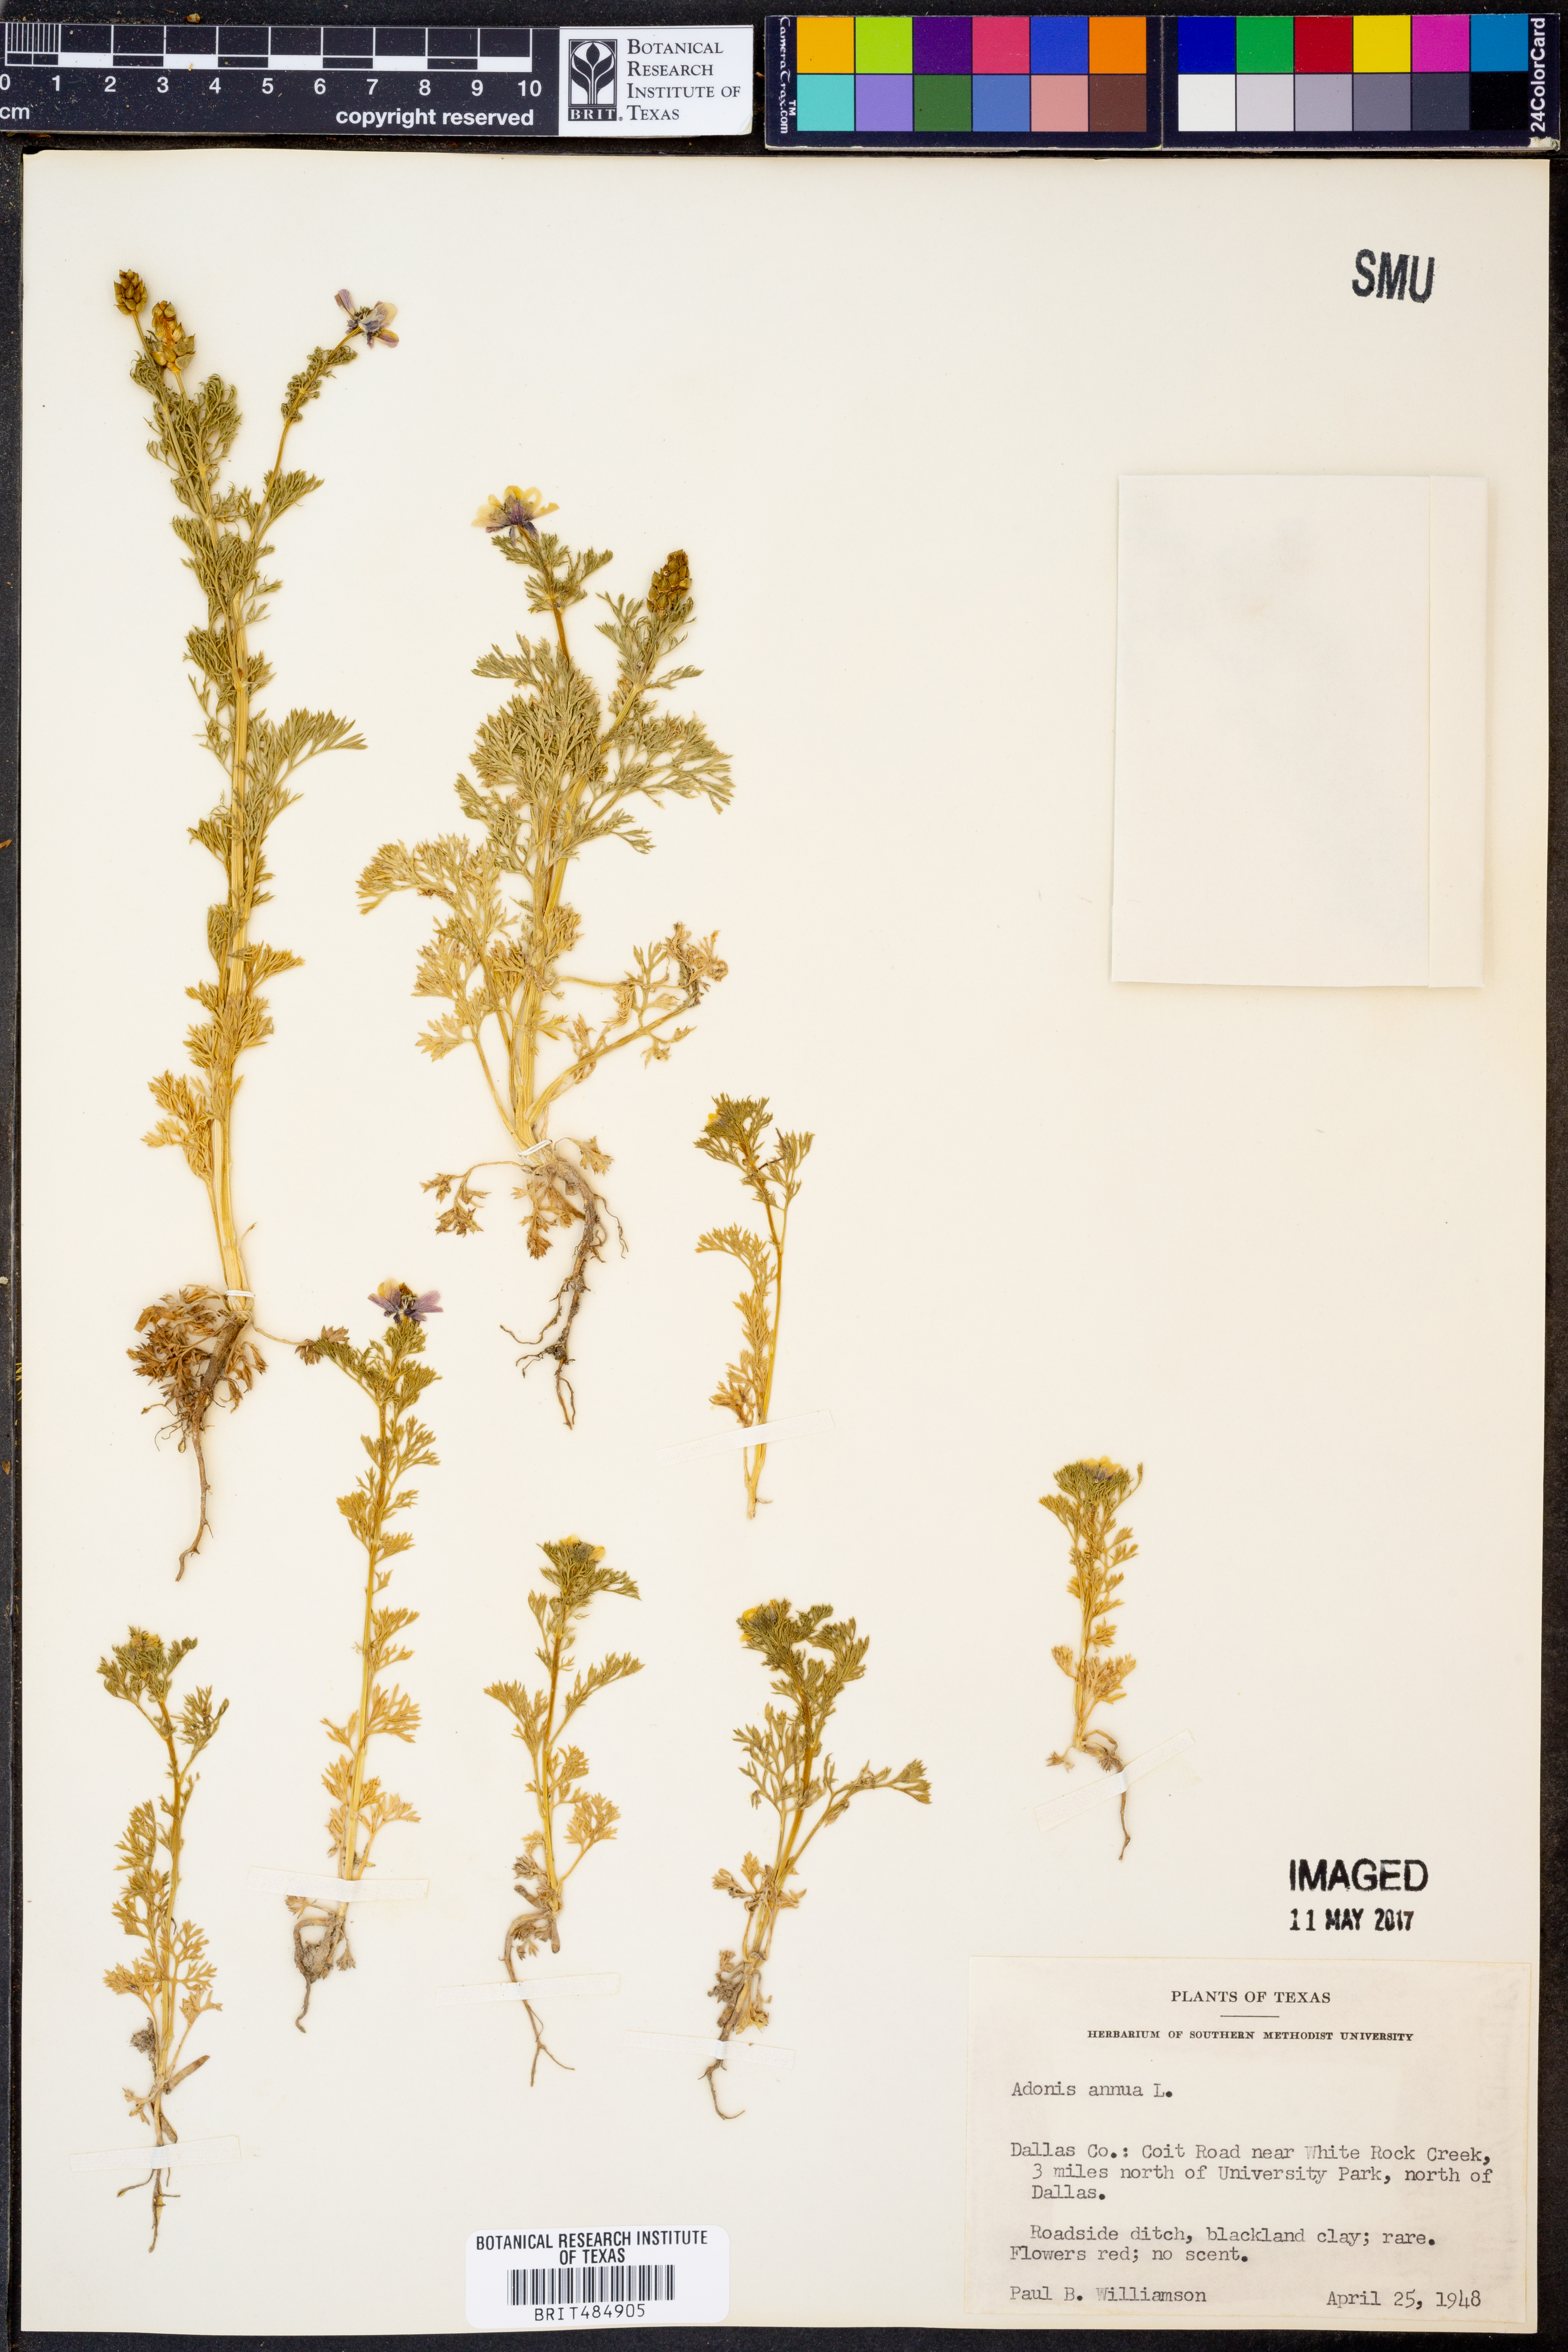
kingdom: Plantae
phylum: Tracheophyta
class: Magnoliopsida
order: Ranunculales
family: Ranunculaceae
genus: Adonis
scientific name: Adonis annua
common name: Pheasant's-eye
